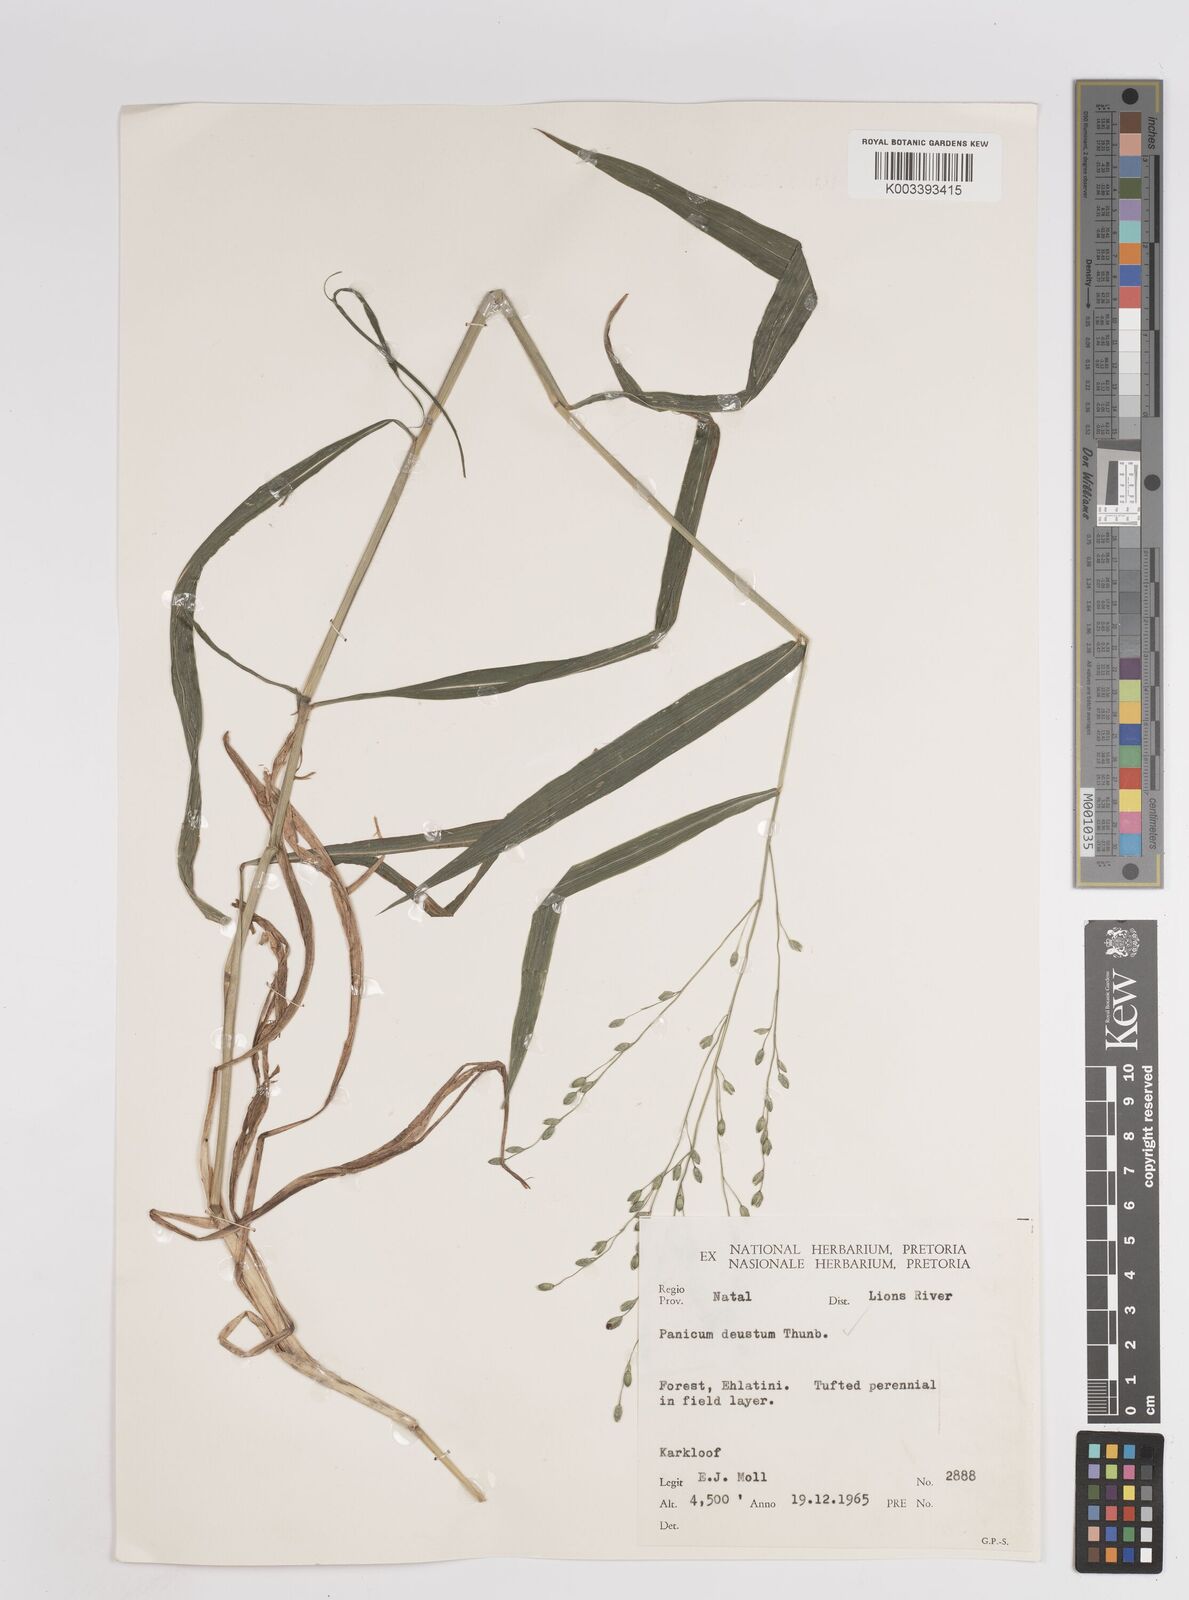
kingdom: Plantae
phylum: Tracheophyta
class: Liliopsida
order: Poales
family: Poaceae
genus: Panicum
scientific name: Panicum deustum
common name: Reed panicum
